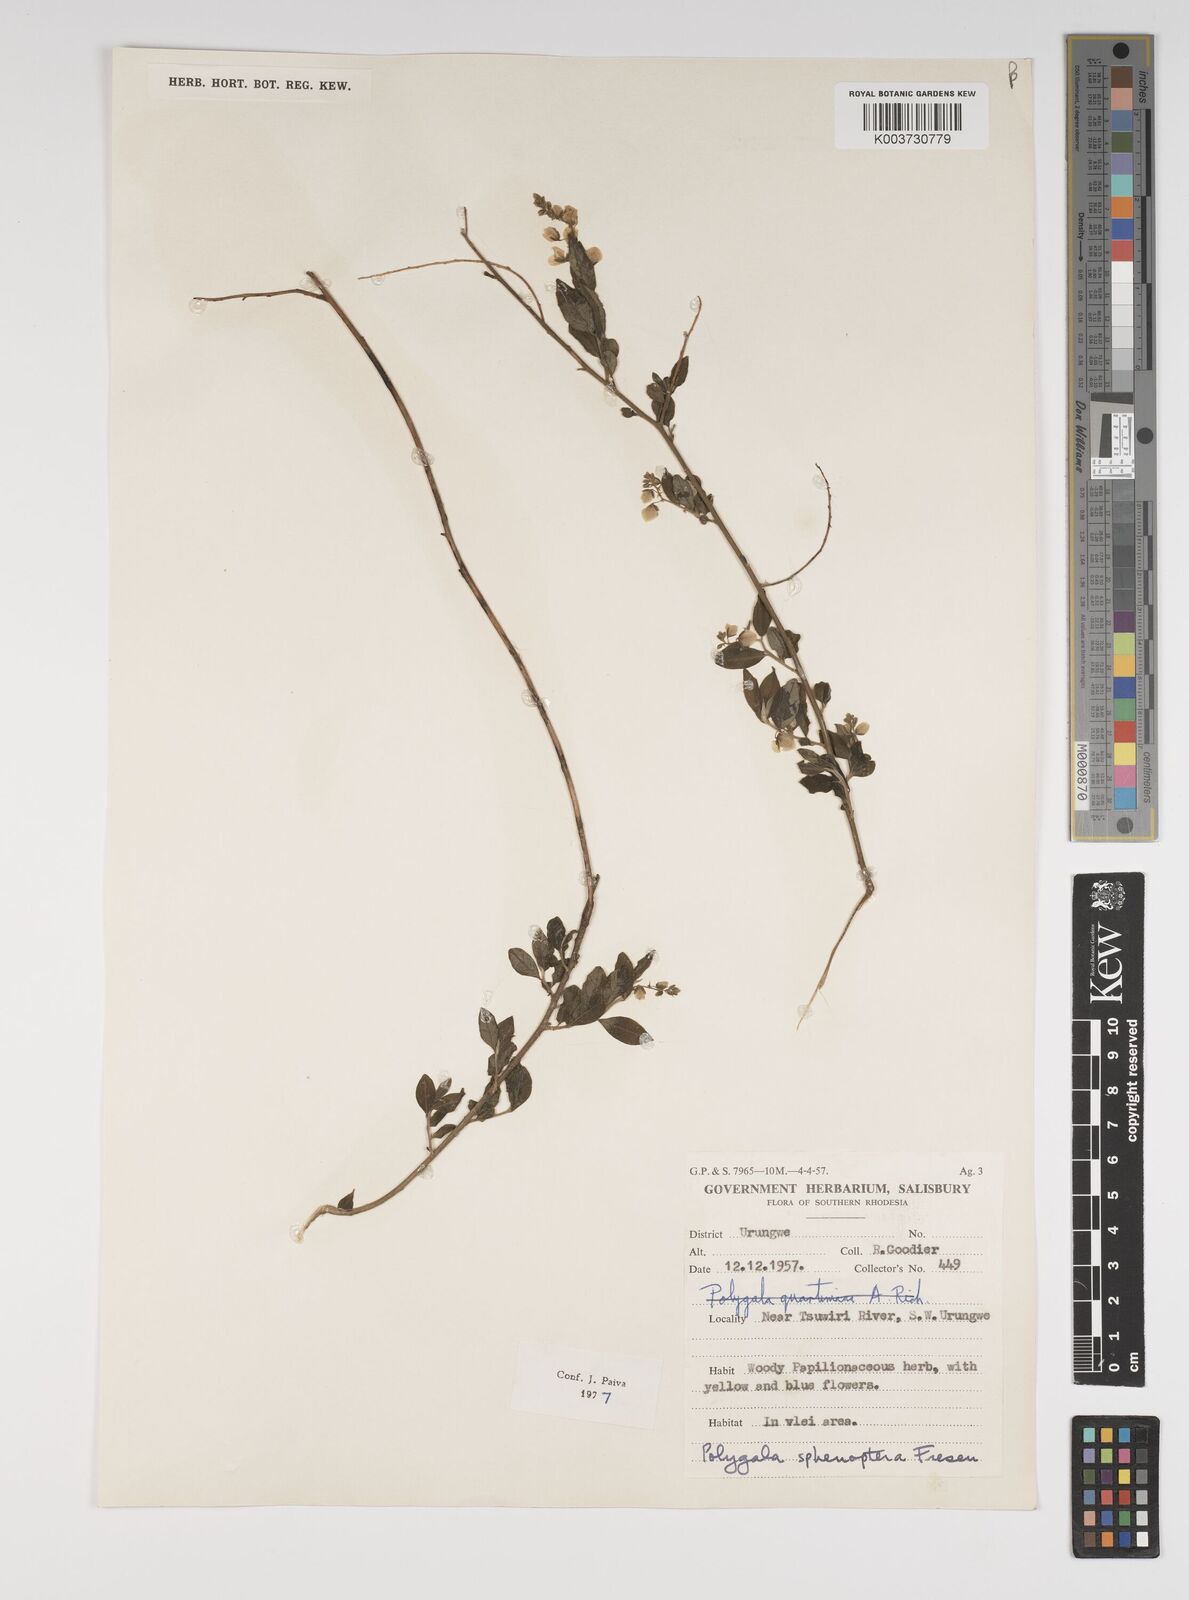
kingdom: Plantae
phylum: Tracheophyta
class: Magnoliopsida
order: Fabales
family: Polygalaceae
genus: Polygala
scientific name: Polygala sphenoptera
